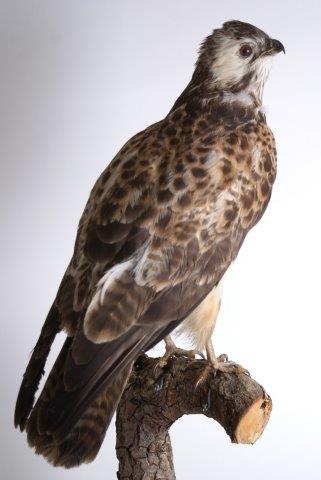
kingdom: Animalia
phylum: Chordata
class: Aves
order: Accipitriformes
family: Accipitridae
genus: Buteo
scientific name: Buteo buteo
